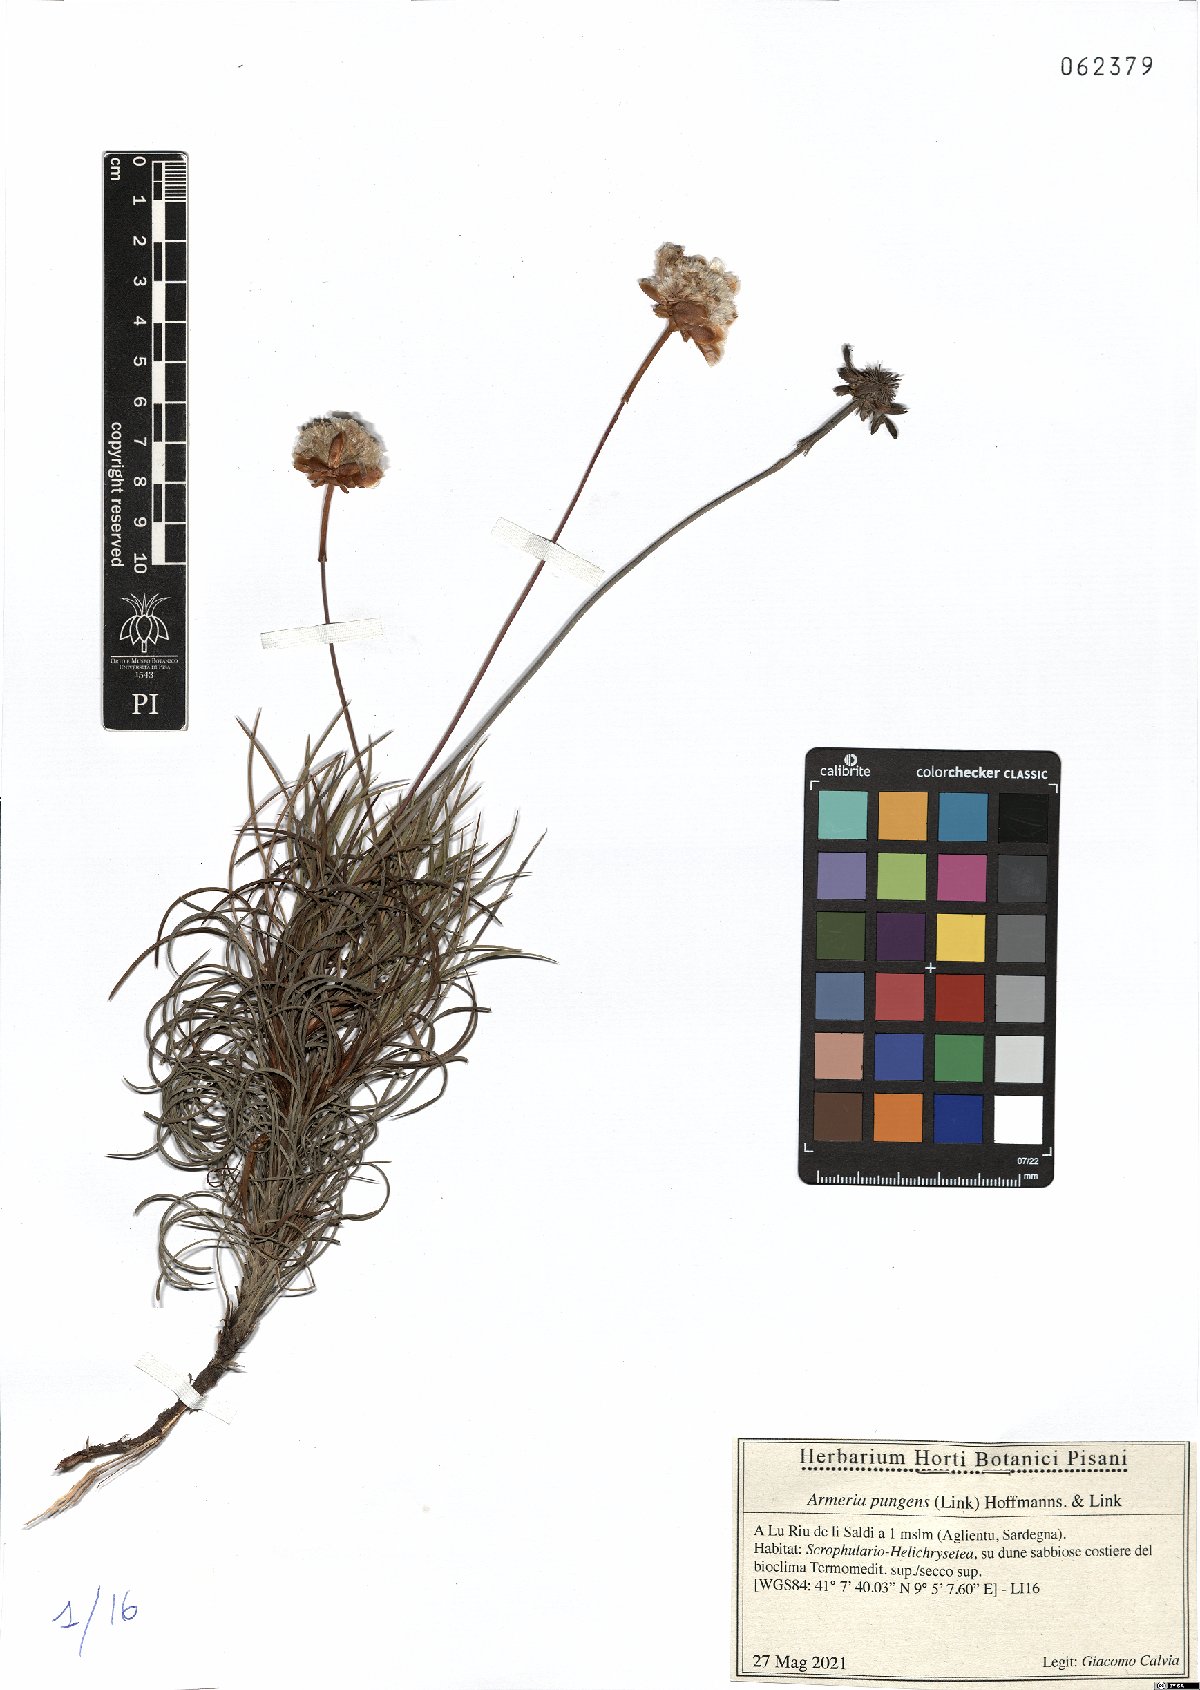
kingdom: Plantae
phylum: Tracheophyta
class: Magnoliopsida
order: Caryophyllales
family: Plumbaginaceae
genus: Armeria
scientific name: Armeria pungens
